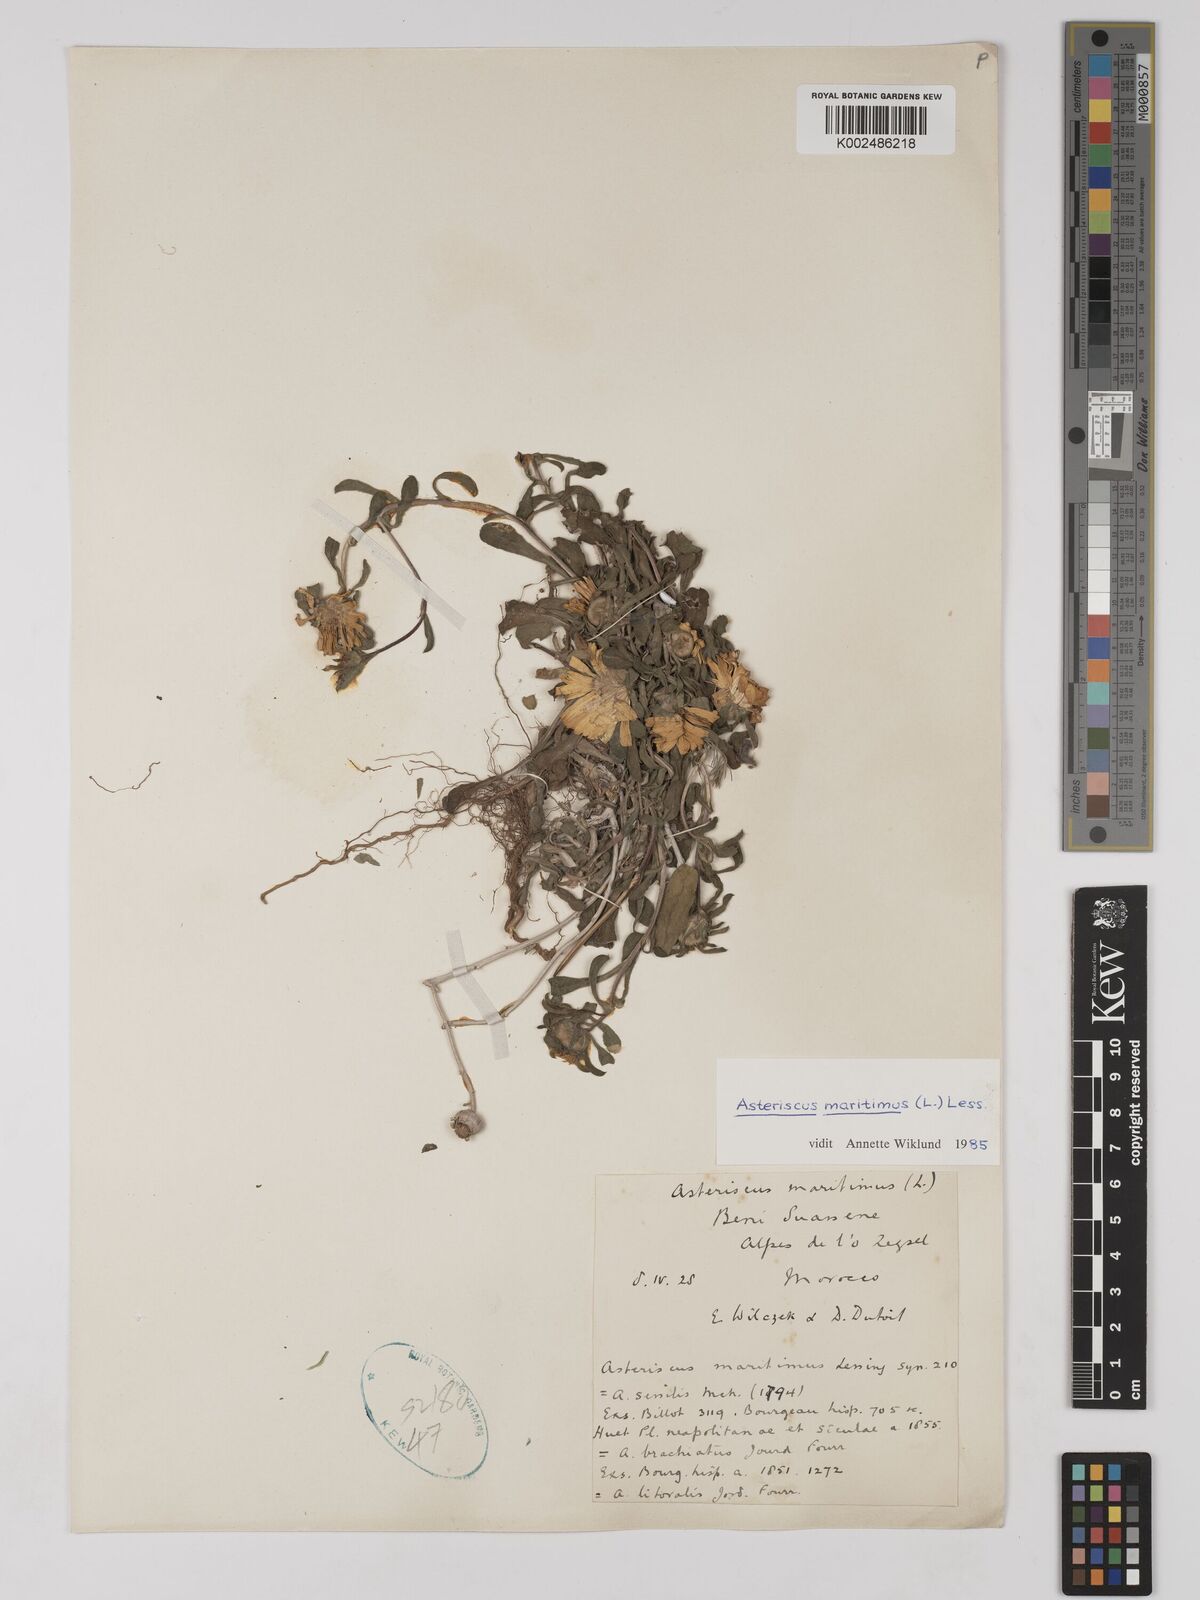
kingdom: Plantae
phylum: Tracheophyta
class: Magnoliopsida
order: Asterales
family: Asteraceae
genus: Pallenis
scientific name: Pallenis maritima
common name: Golden coin daisy
